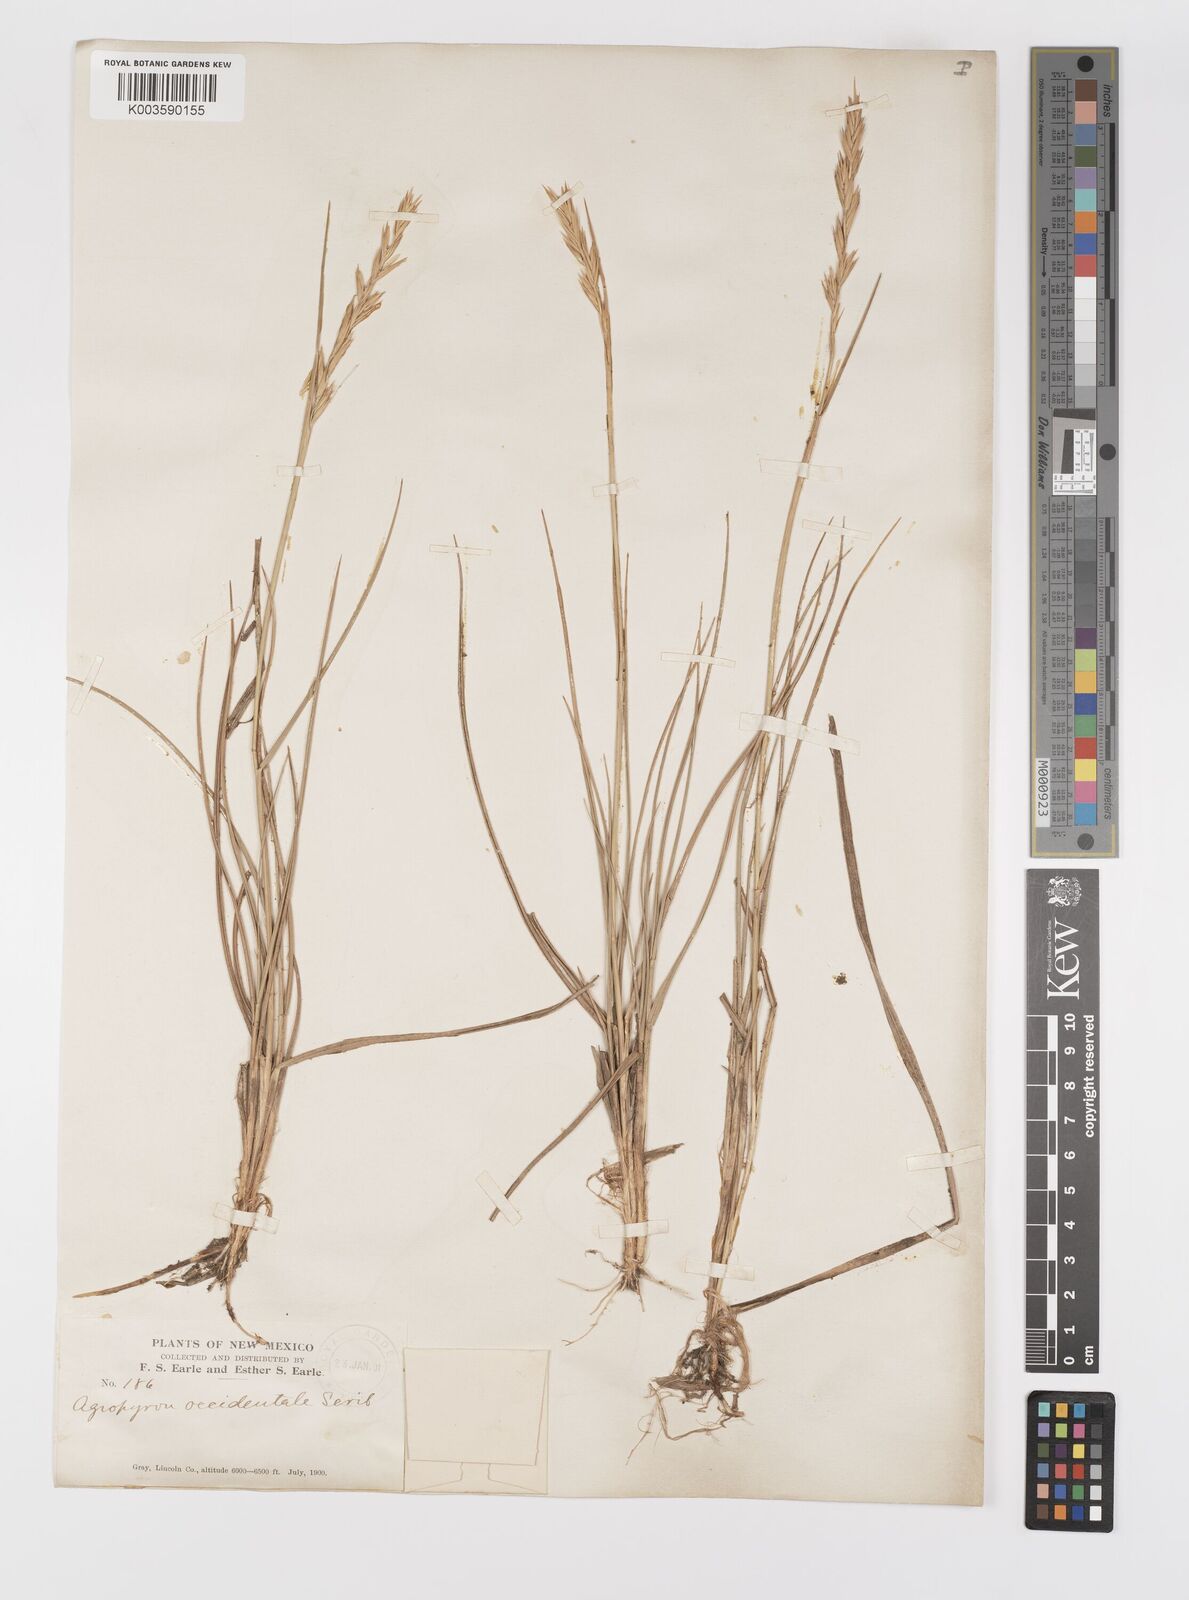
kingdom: Plantae
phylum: Tracheophyta
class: Liliopsida
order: Poales
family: Poaceae
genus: Elymus
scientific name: Elymus smithii
